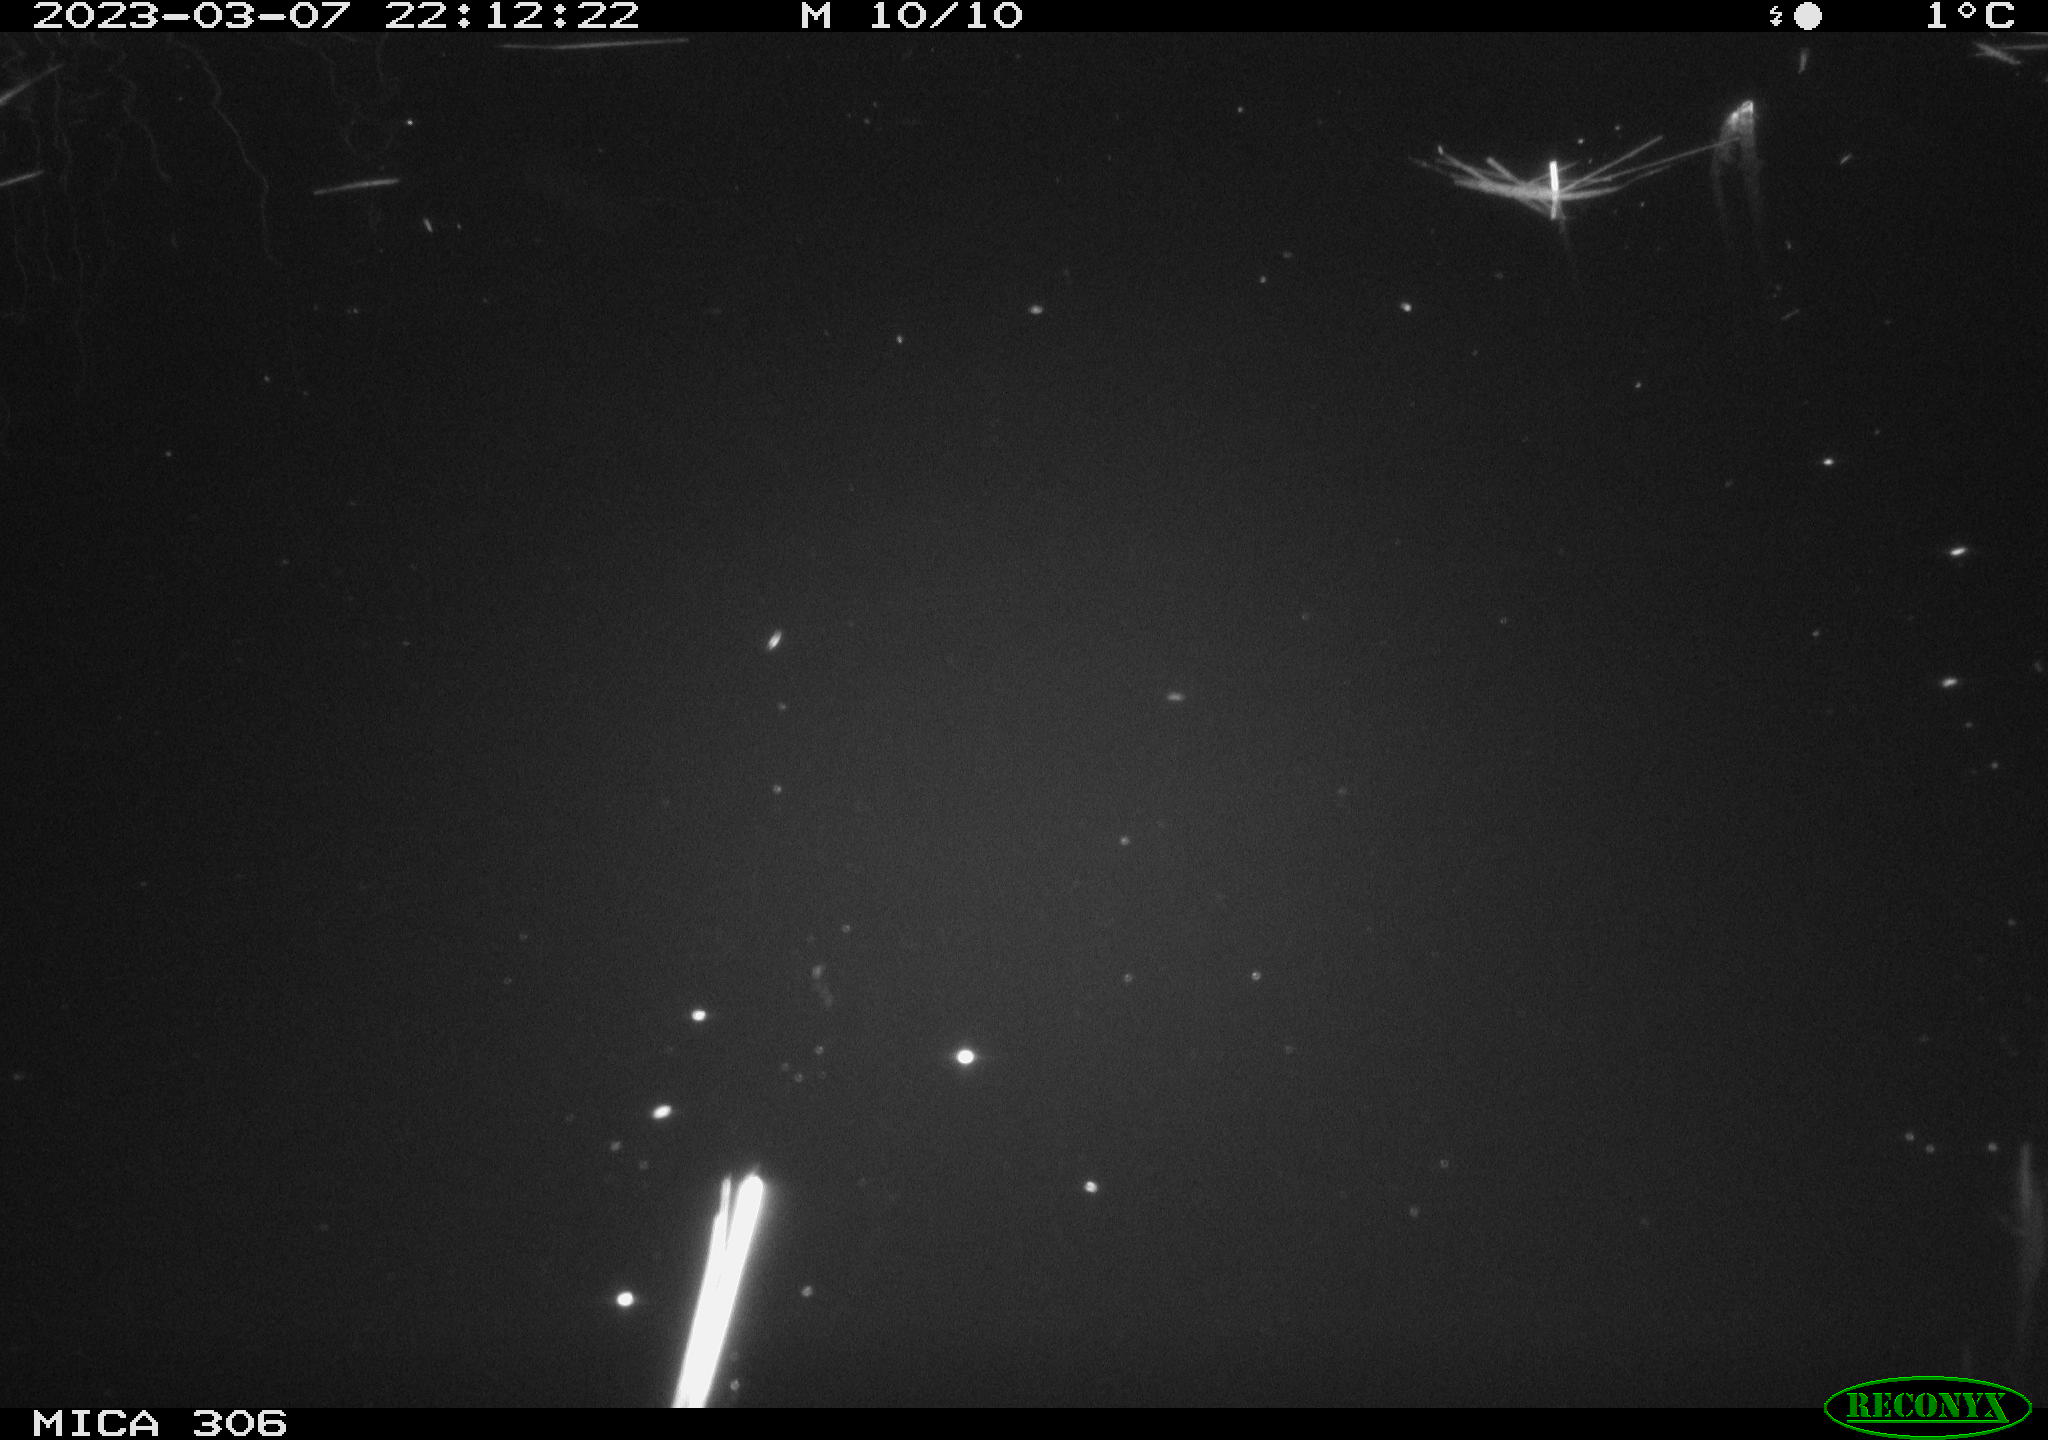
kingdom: Animalia
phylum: Chordata
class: Mammalia
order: Rodentia
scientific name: Rodentia
